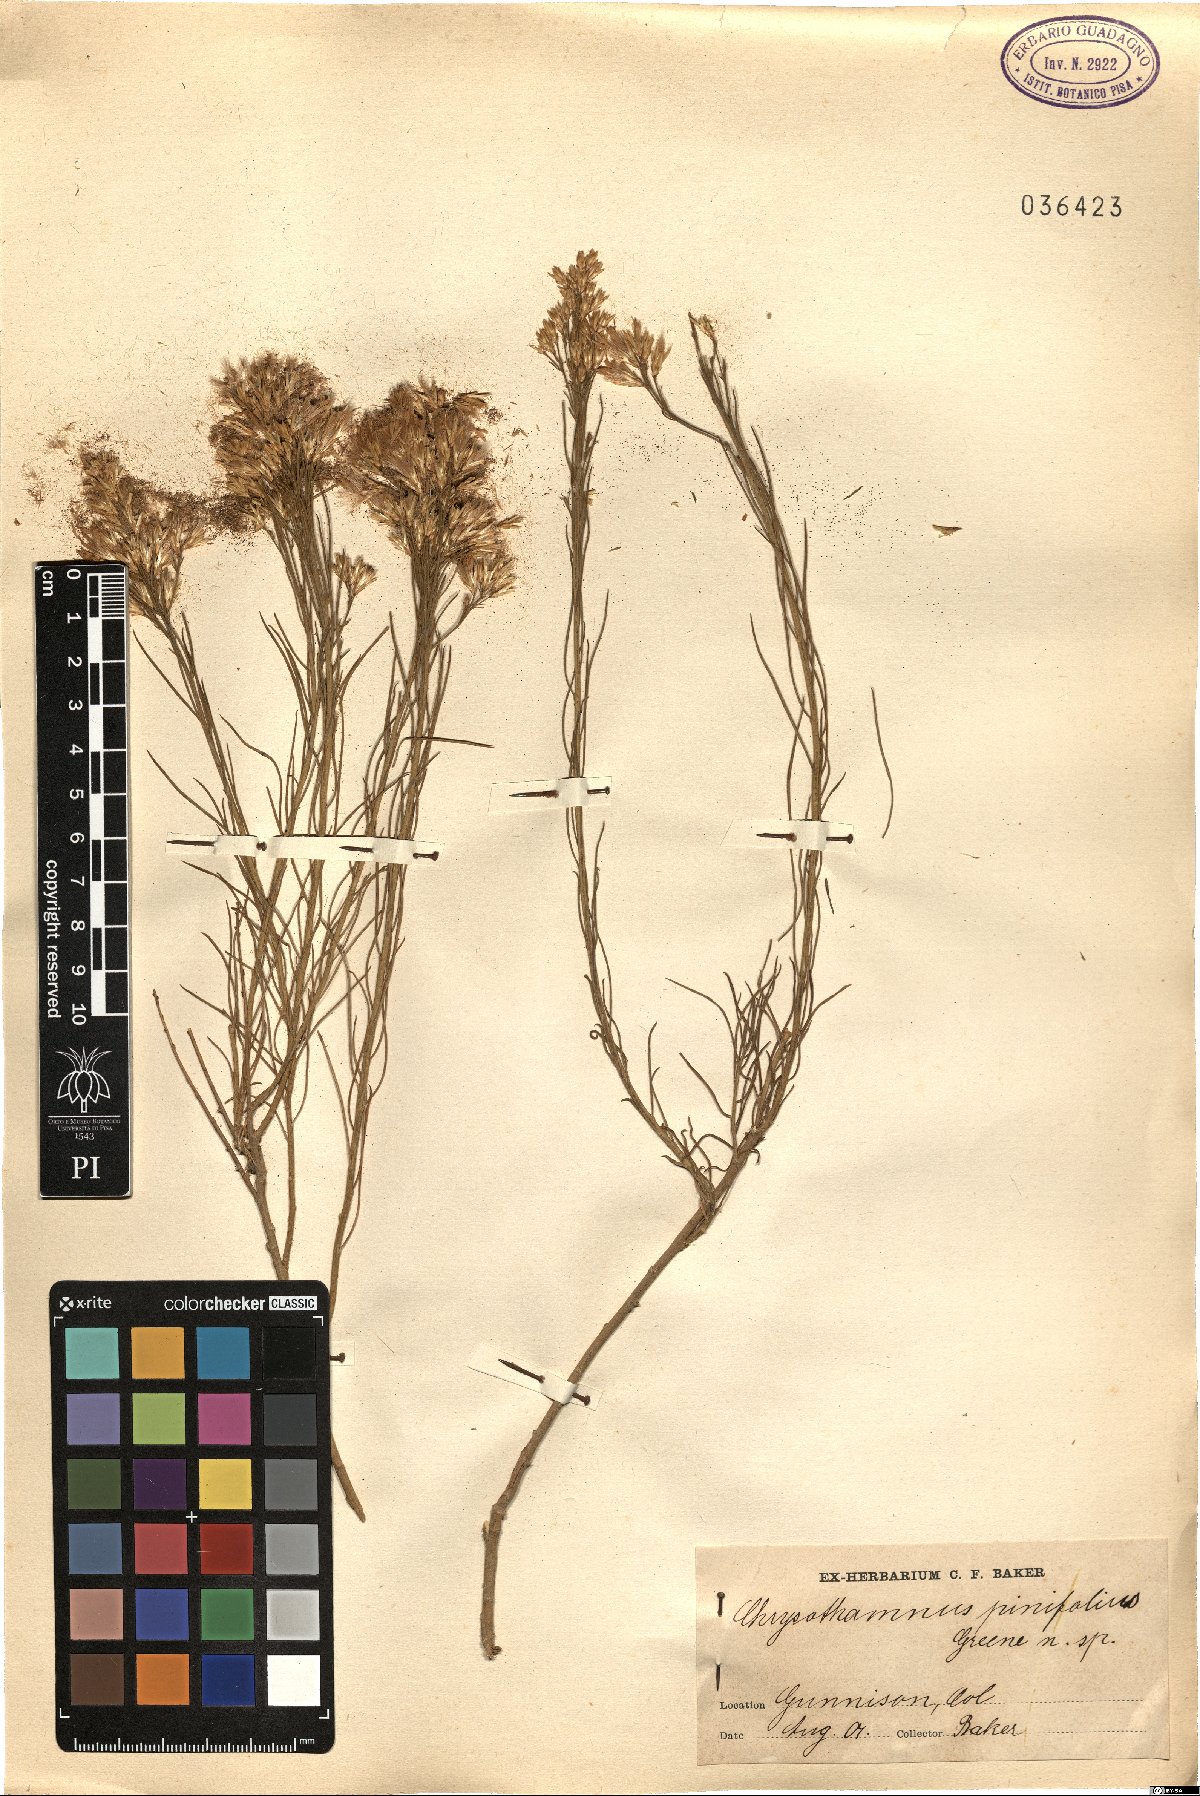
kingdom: Plantae
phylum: Tracheophyta
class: Magnoliopsida
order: Asterales
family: Asteraceae
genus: Ericameria
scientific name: Ericameria nauseosa
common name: Rubber rabbitbrush
